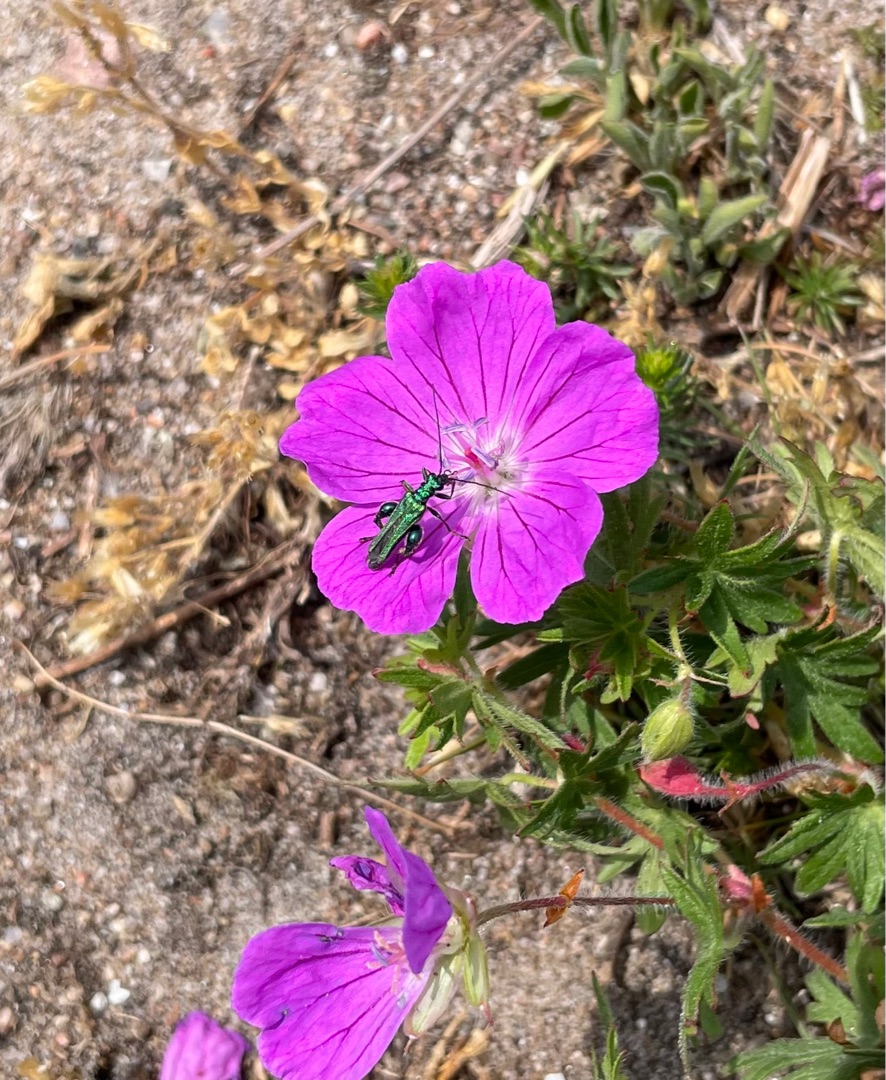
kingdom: Animalia
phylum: Arthropoda
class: Insecta
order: Coleoptera
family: Oedemeridae
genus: Oedemera
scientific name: Oedemera nobilis
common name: Tyklårssolbille
